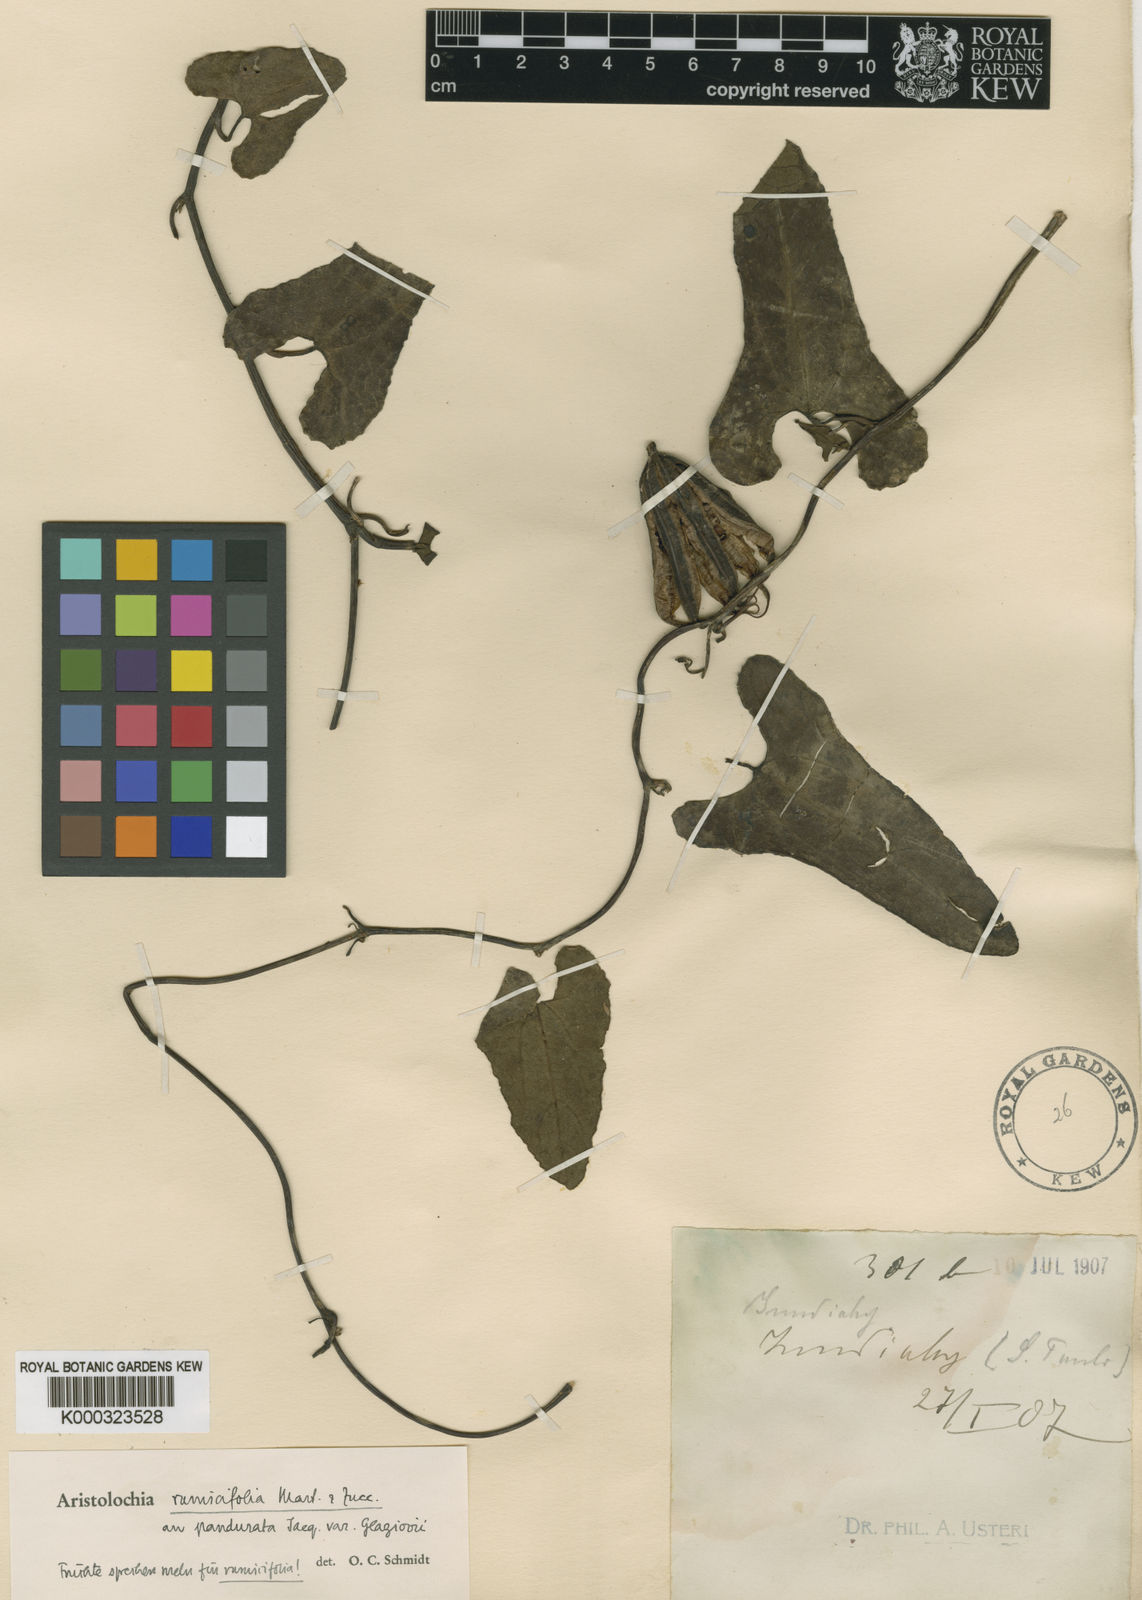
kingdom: Plantae
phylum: Tracheophyta
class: Magnoliopsida
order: Piperales
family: Aristolochiaceae
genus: Aristolochia
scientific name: Aristolochia
